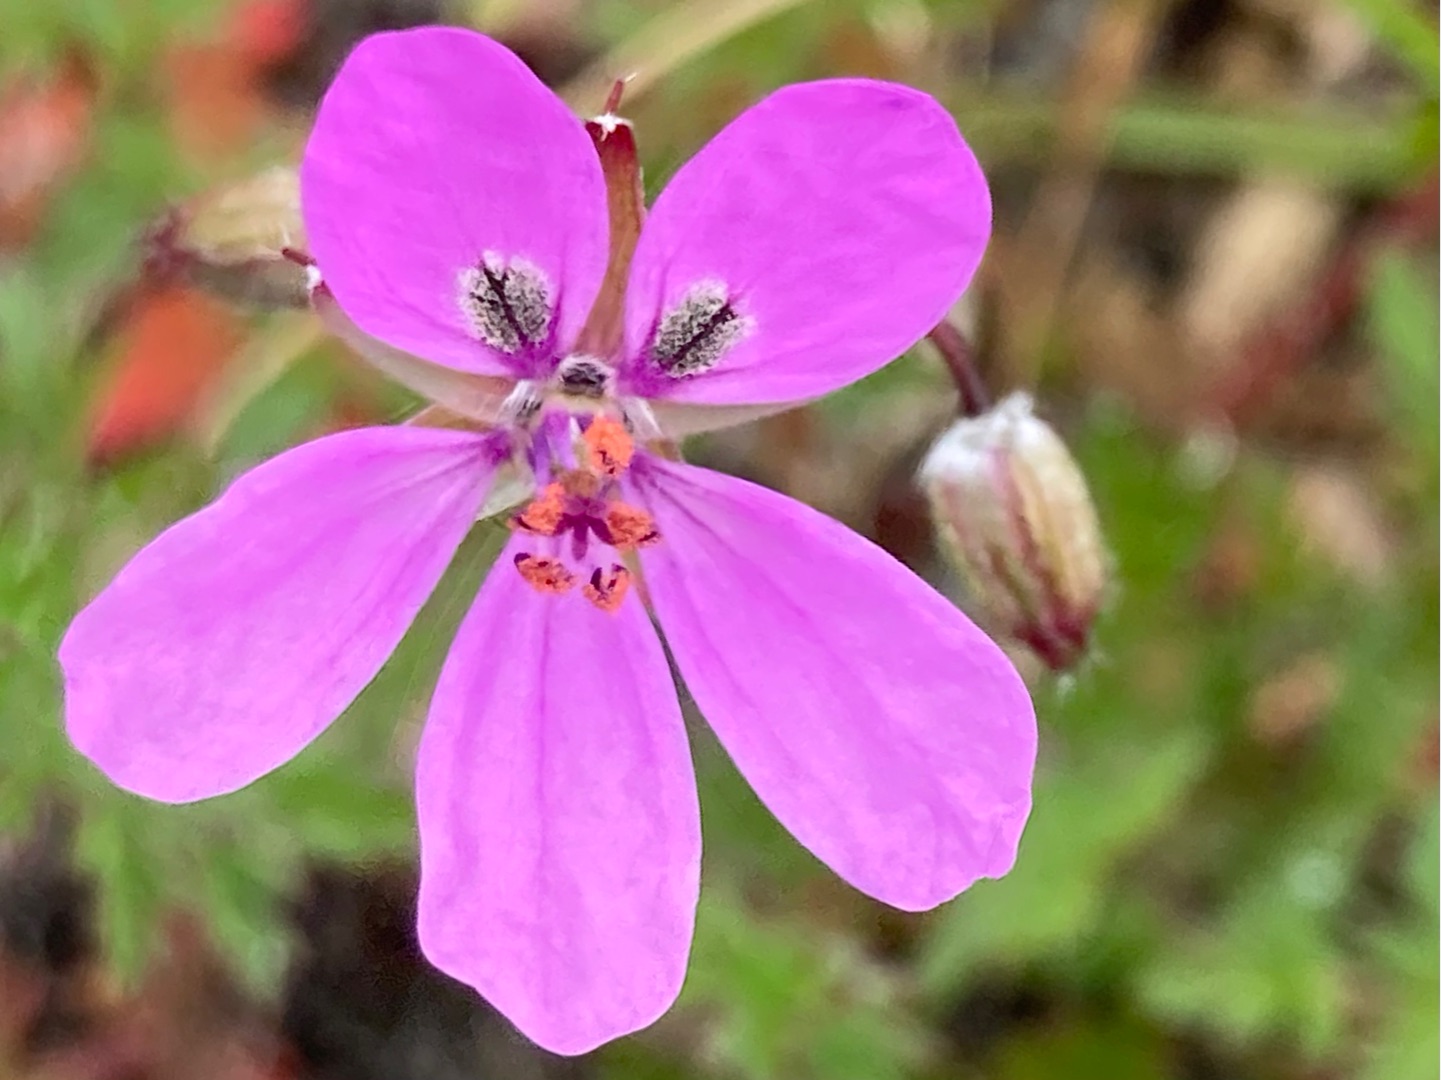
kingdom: Plantae
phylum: Tracheophyta
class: Magnoliopsida
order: Geraniales
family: Geraniaceae
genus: Erodium
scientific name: Erodium cicutarium
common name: Hejrenæb
